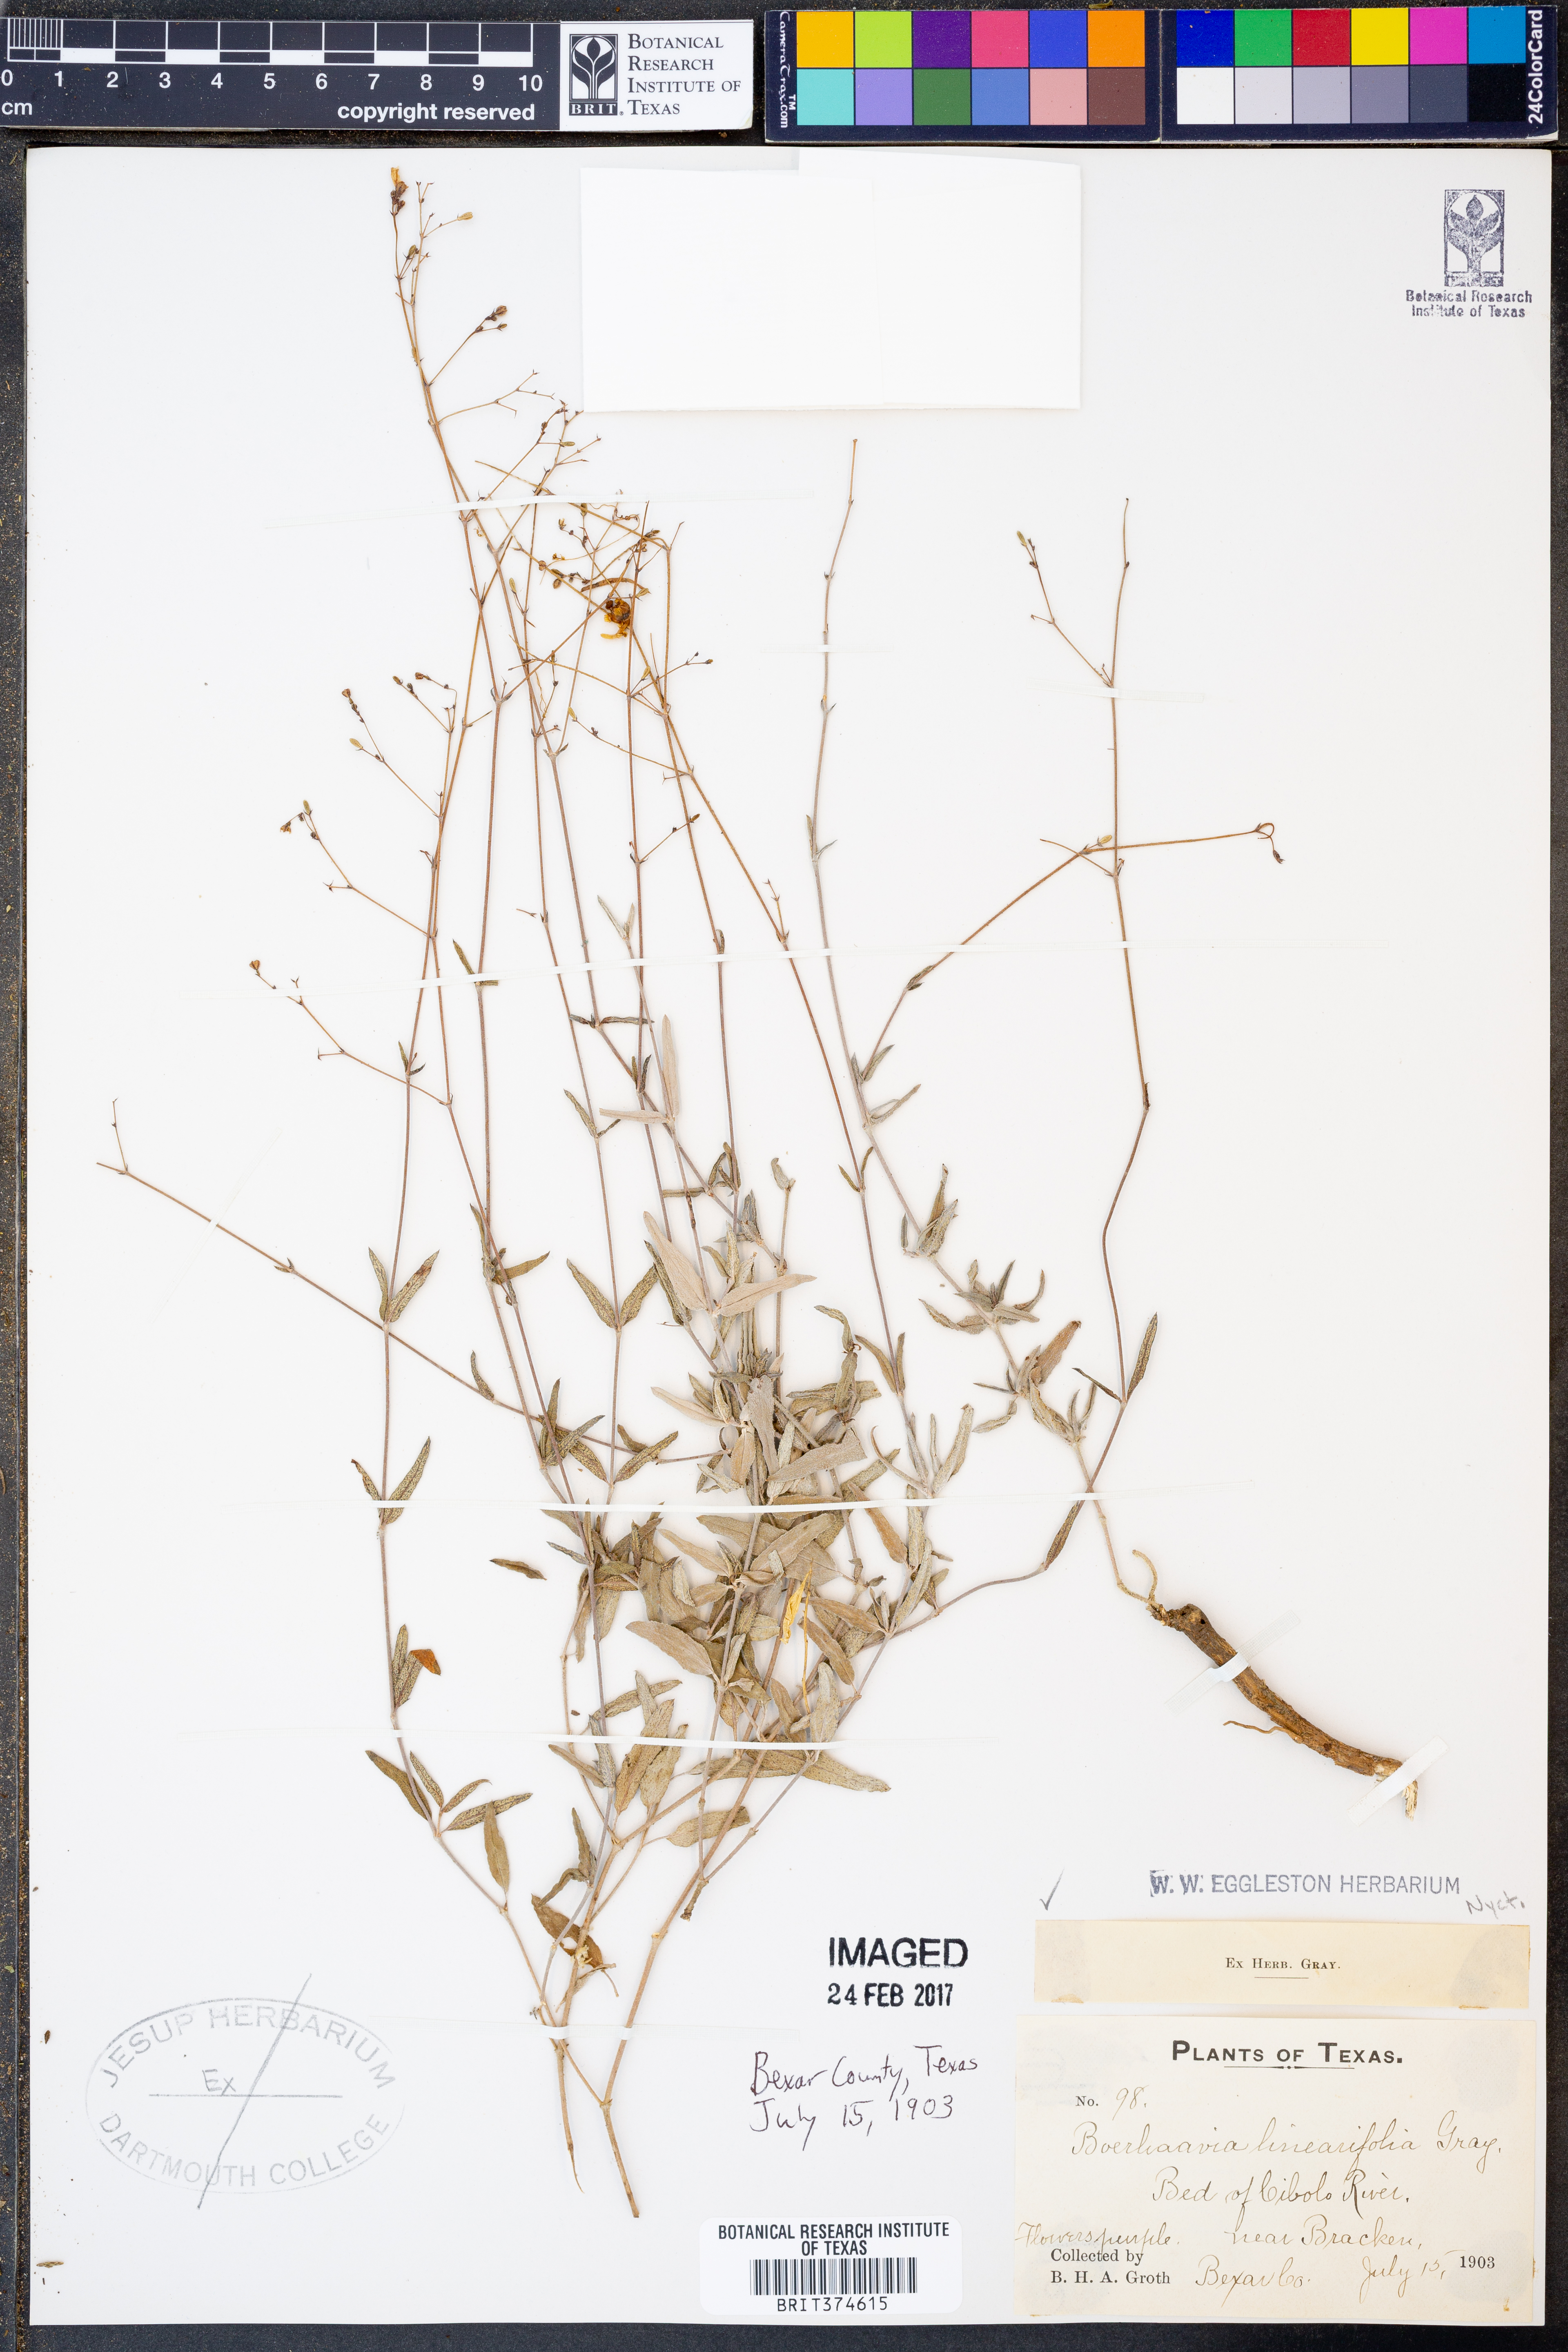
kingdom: Plantae
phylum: Tracheophyta
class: Magnoliopsida
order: Caryophyllales
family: Nyctaginaceae
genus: Boerhavia
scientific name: Boerhavia linearifolia
